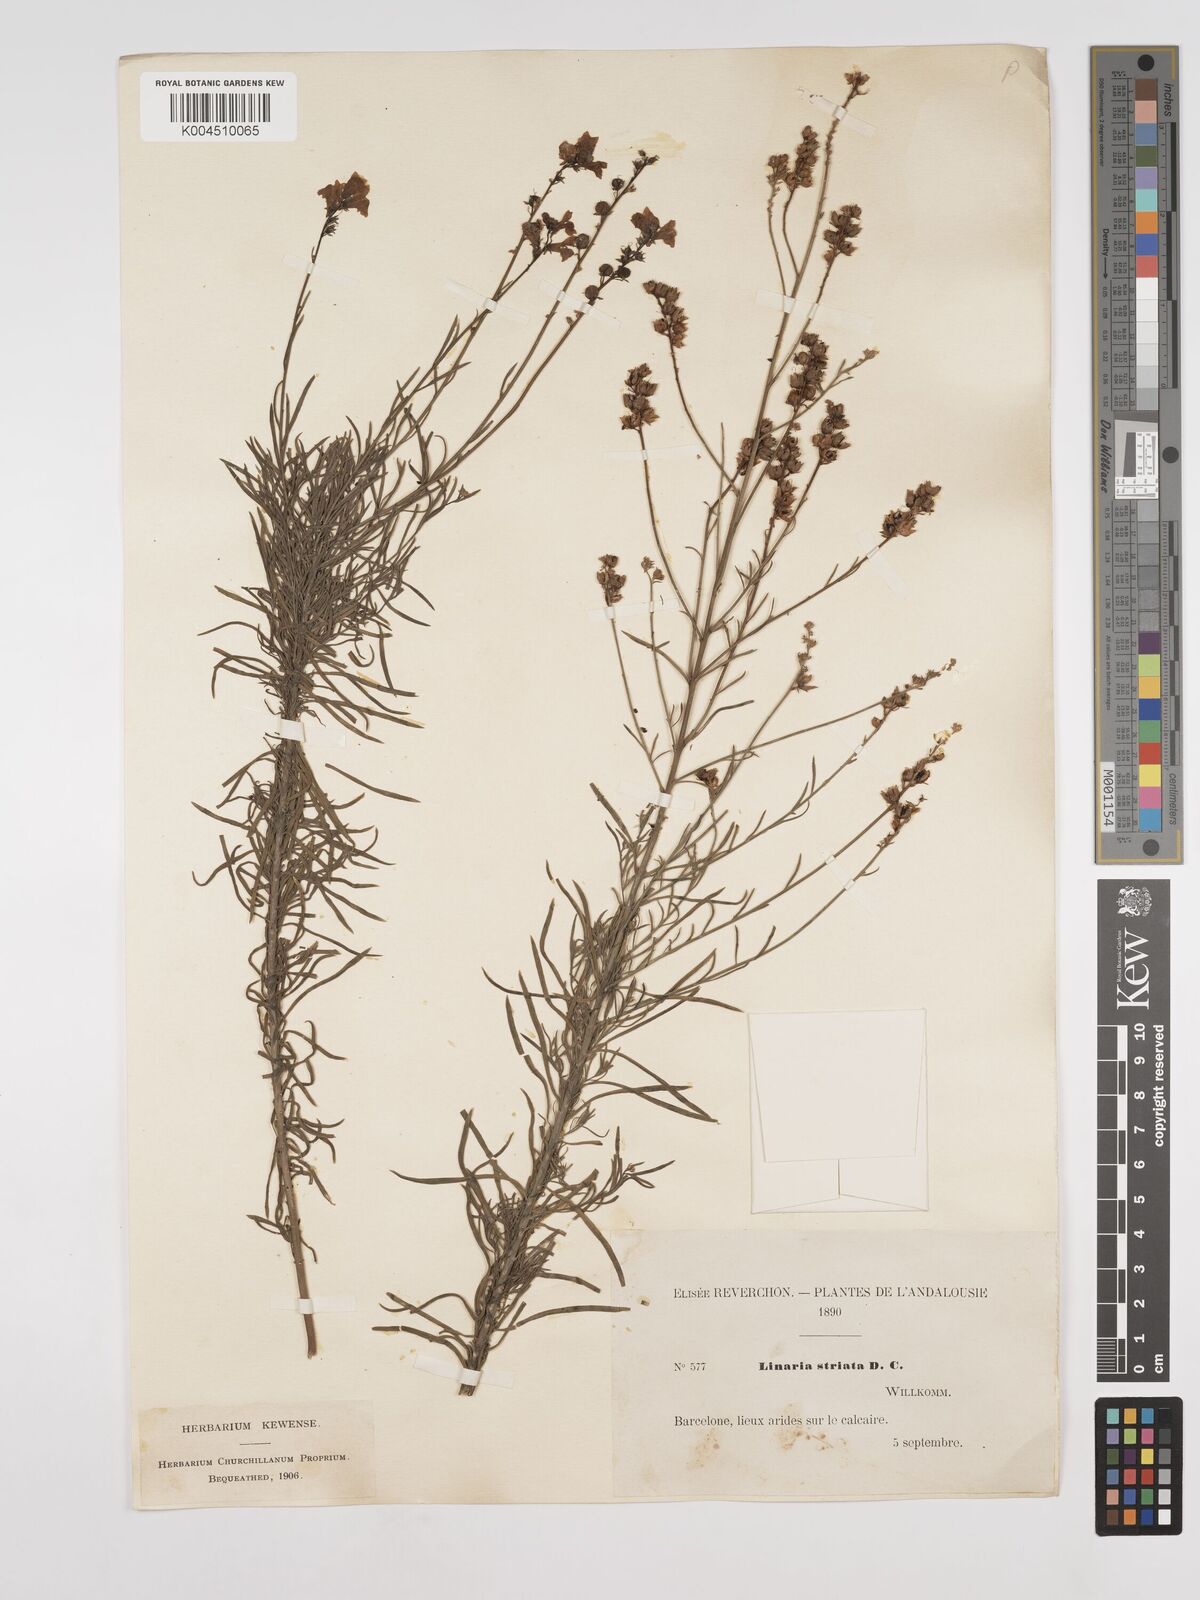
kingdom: Plantae
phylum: Tracheophyta
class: Magnoliopsida
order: Lamiales
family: Plantaginaceae
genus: Linaria
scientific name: Linaria
